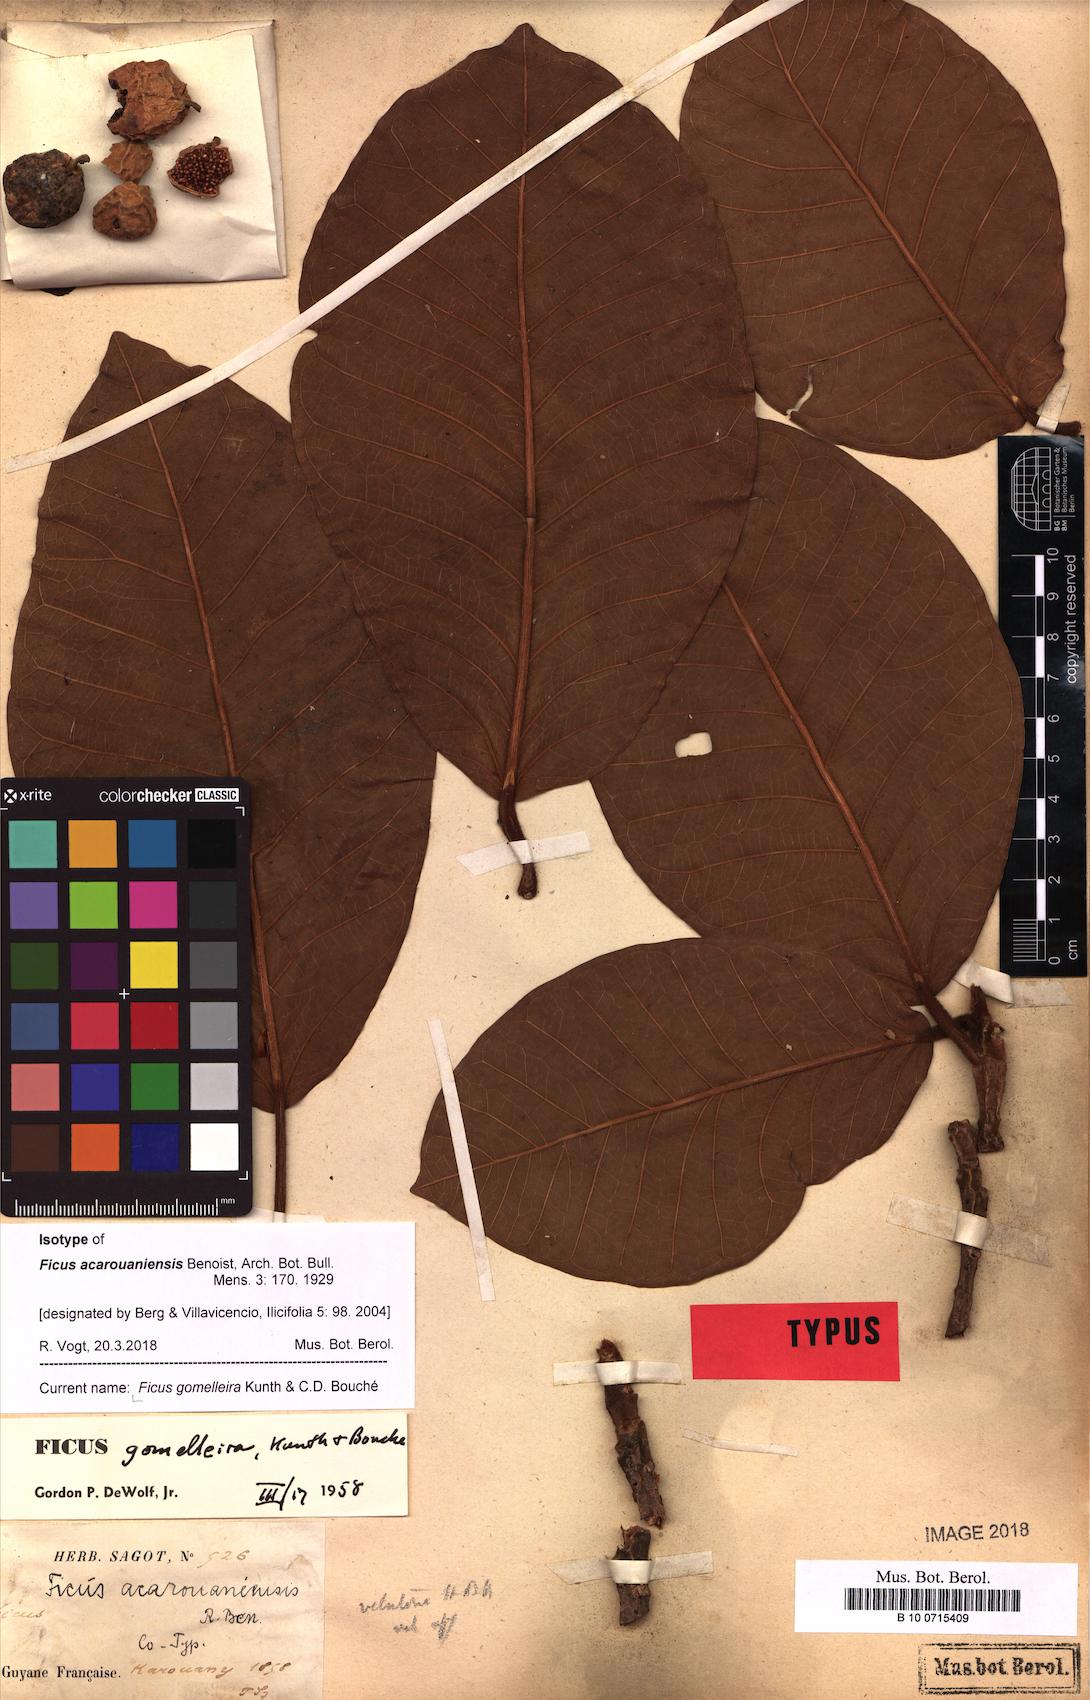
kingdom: Plantae
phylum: Tracheophyta
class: Magnoliopsida
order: Rosales
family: Moraceae
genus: Ficus
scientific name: Ficus gomelleira
